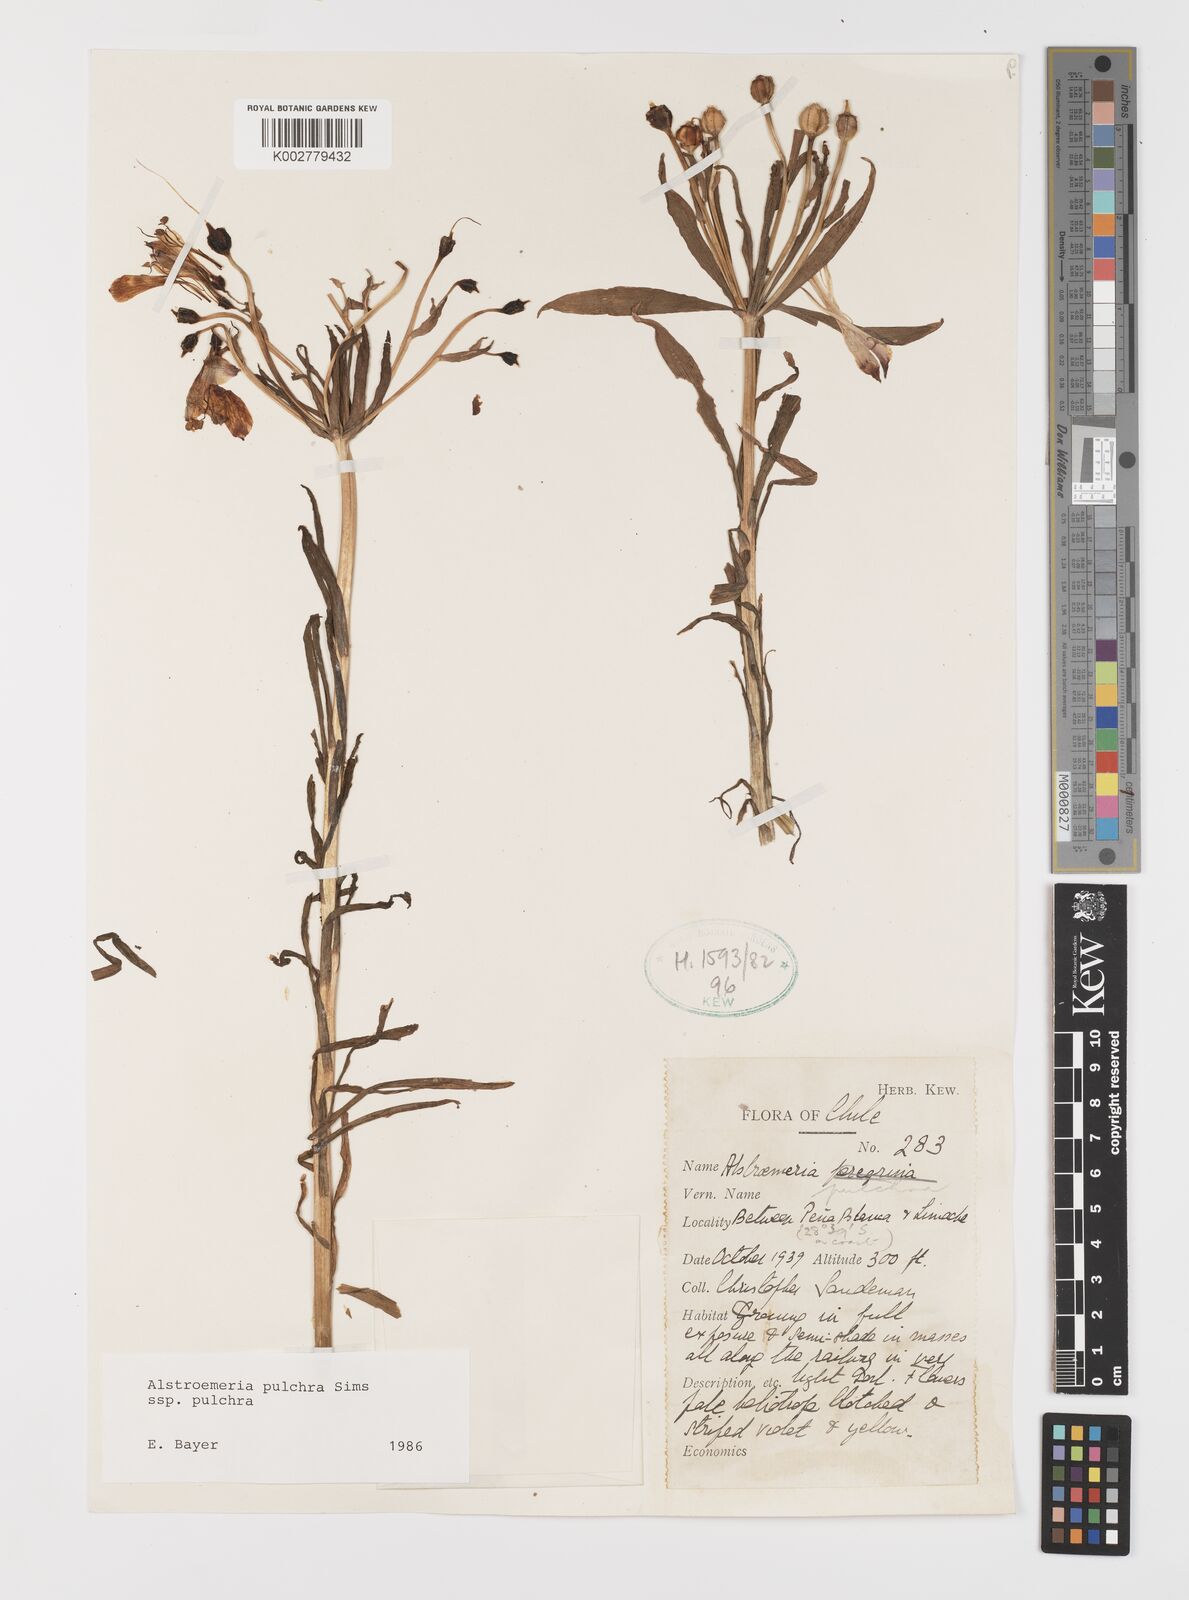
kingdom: Plantae
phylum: Tracheophyta
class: Liliopsida
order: Liliales
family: Alstroemeriaceae
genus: Alstroemeria
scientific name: Alstroemeria pulchra
